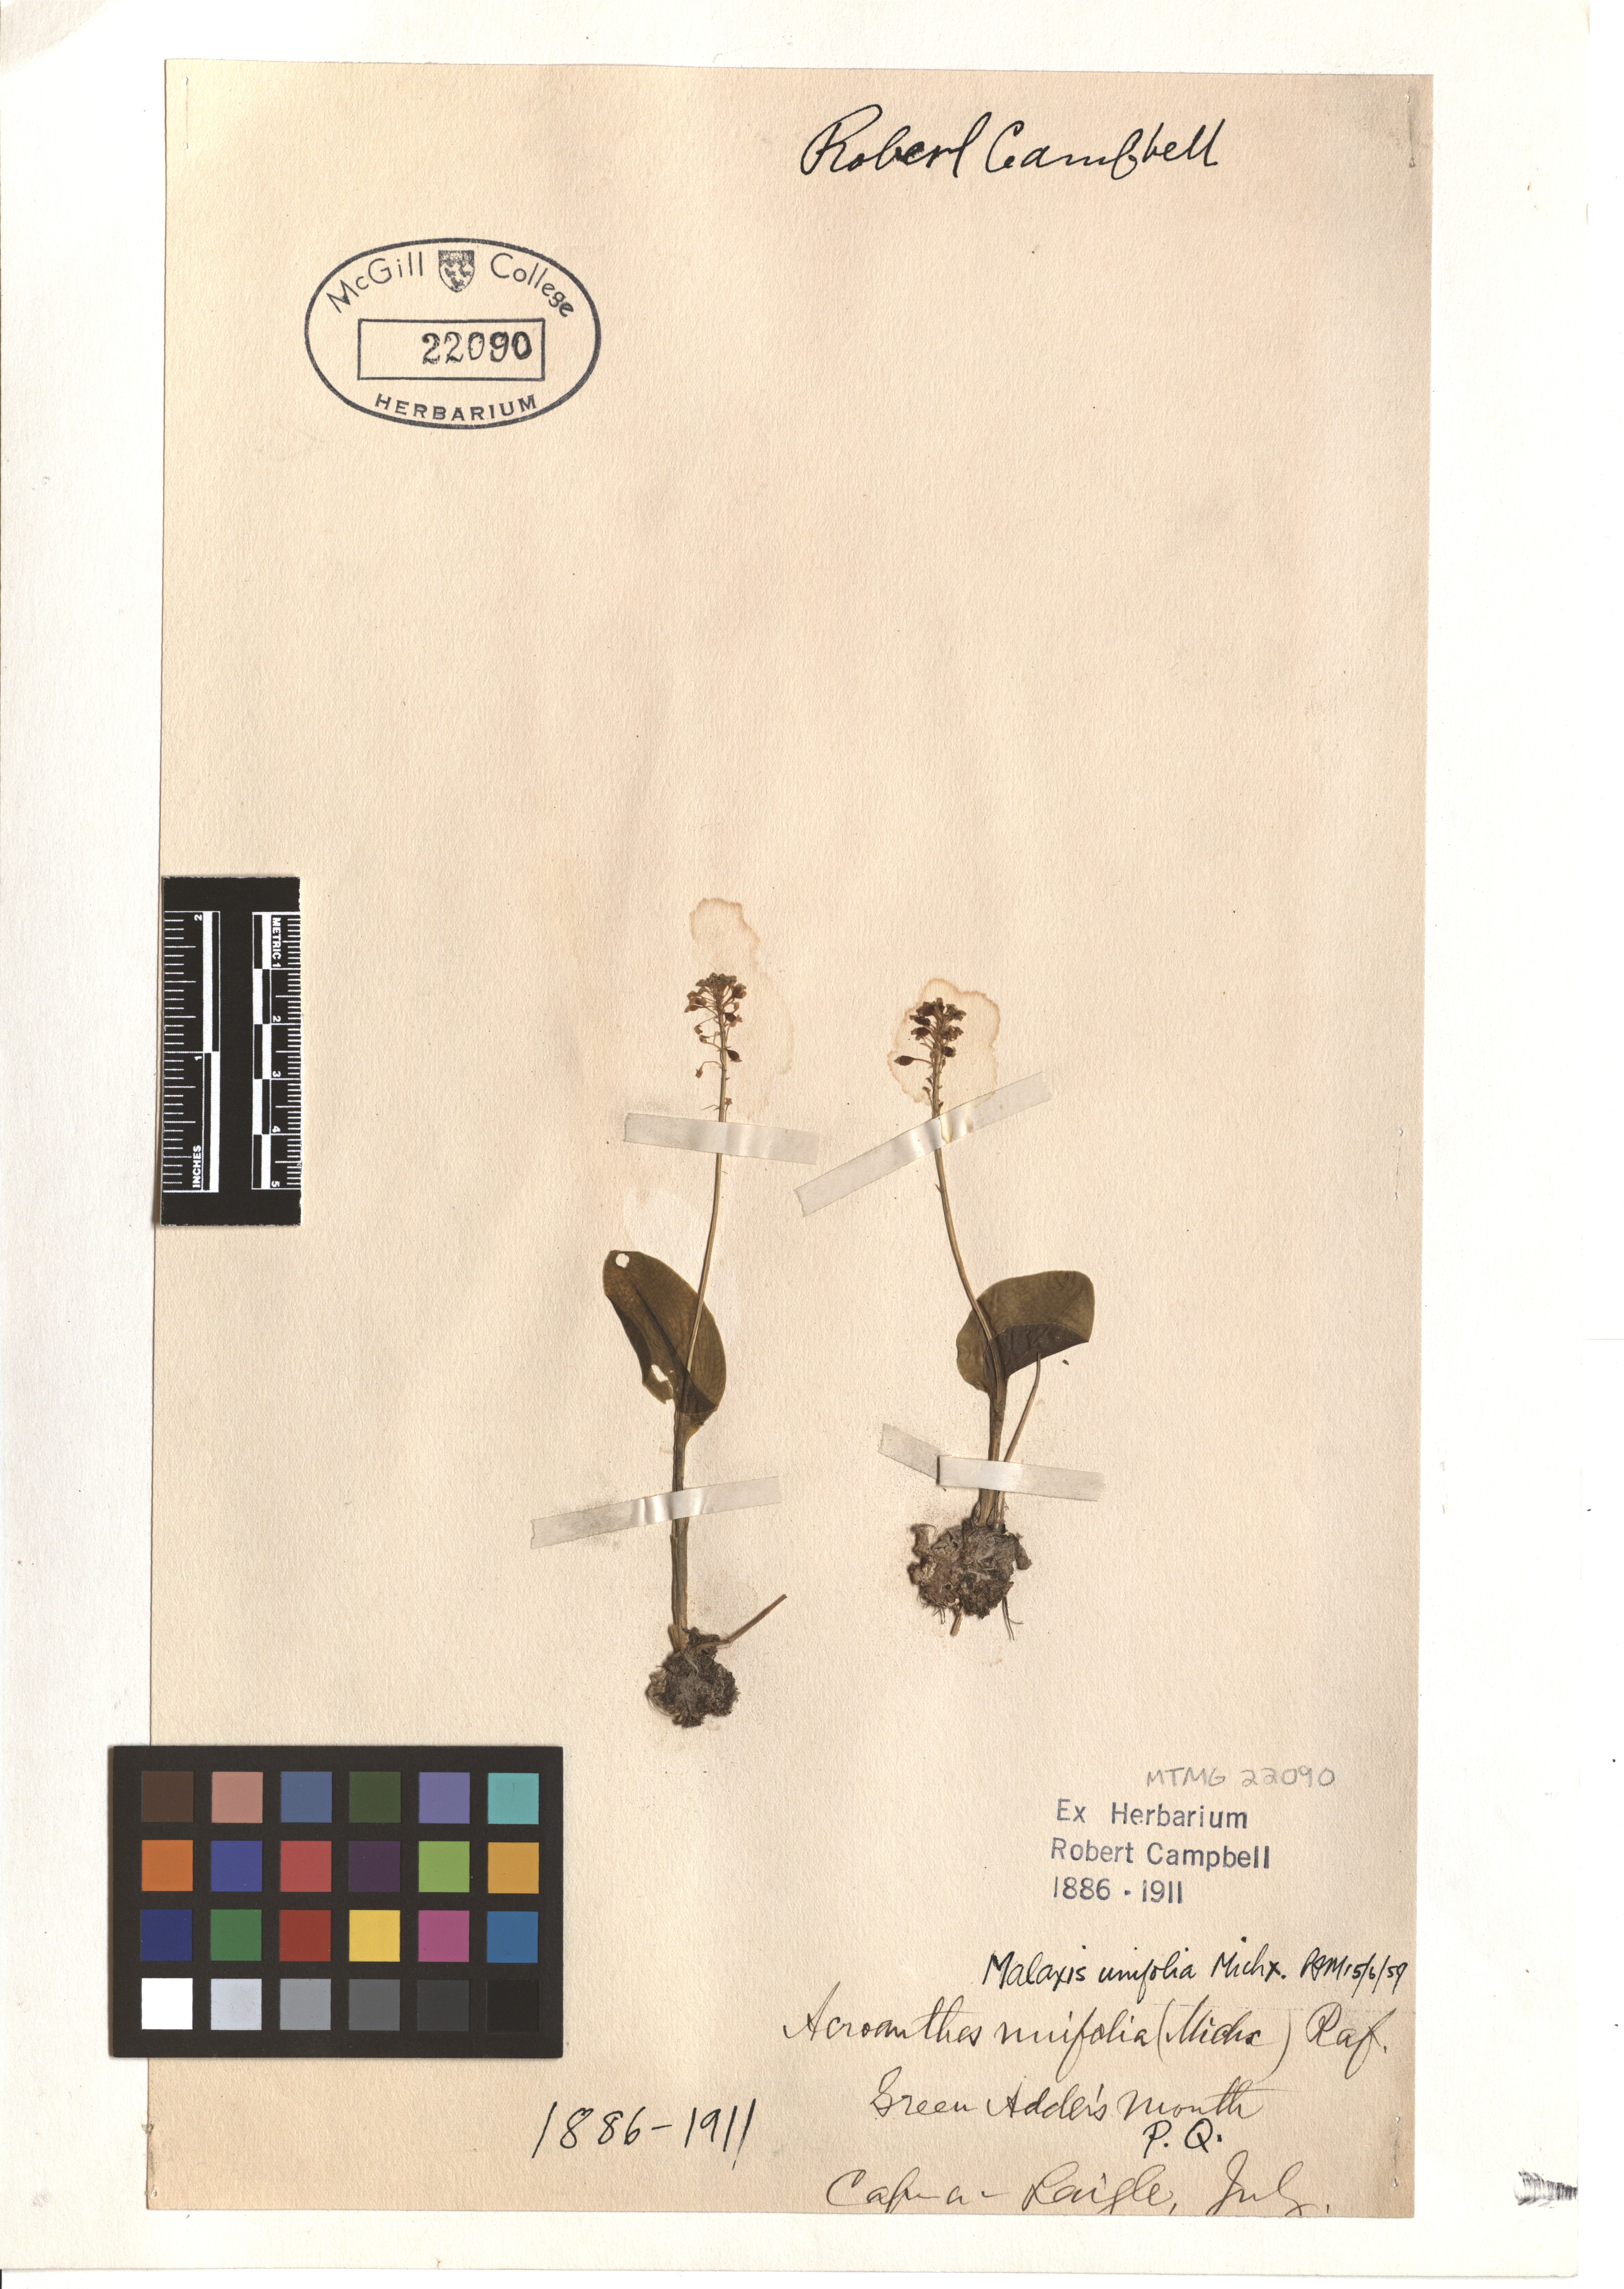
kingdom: Plantae
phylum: Tracheophyta
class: Liliopsida
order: Asparagales
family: Orchidaceae
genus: Malaxis
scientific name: Malaxis unifolia
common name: Green adder's-mouth
